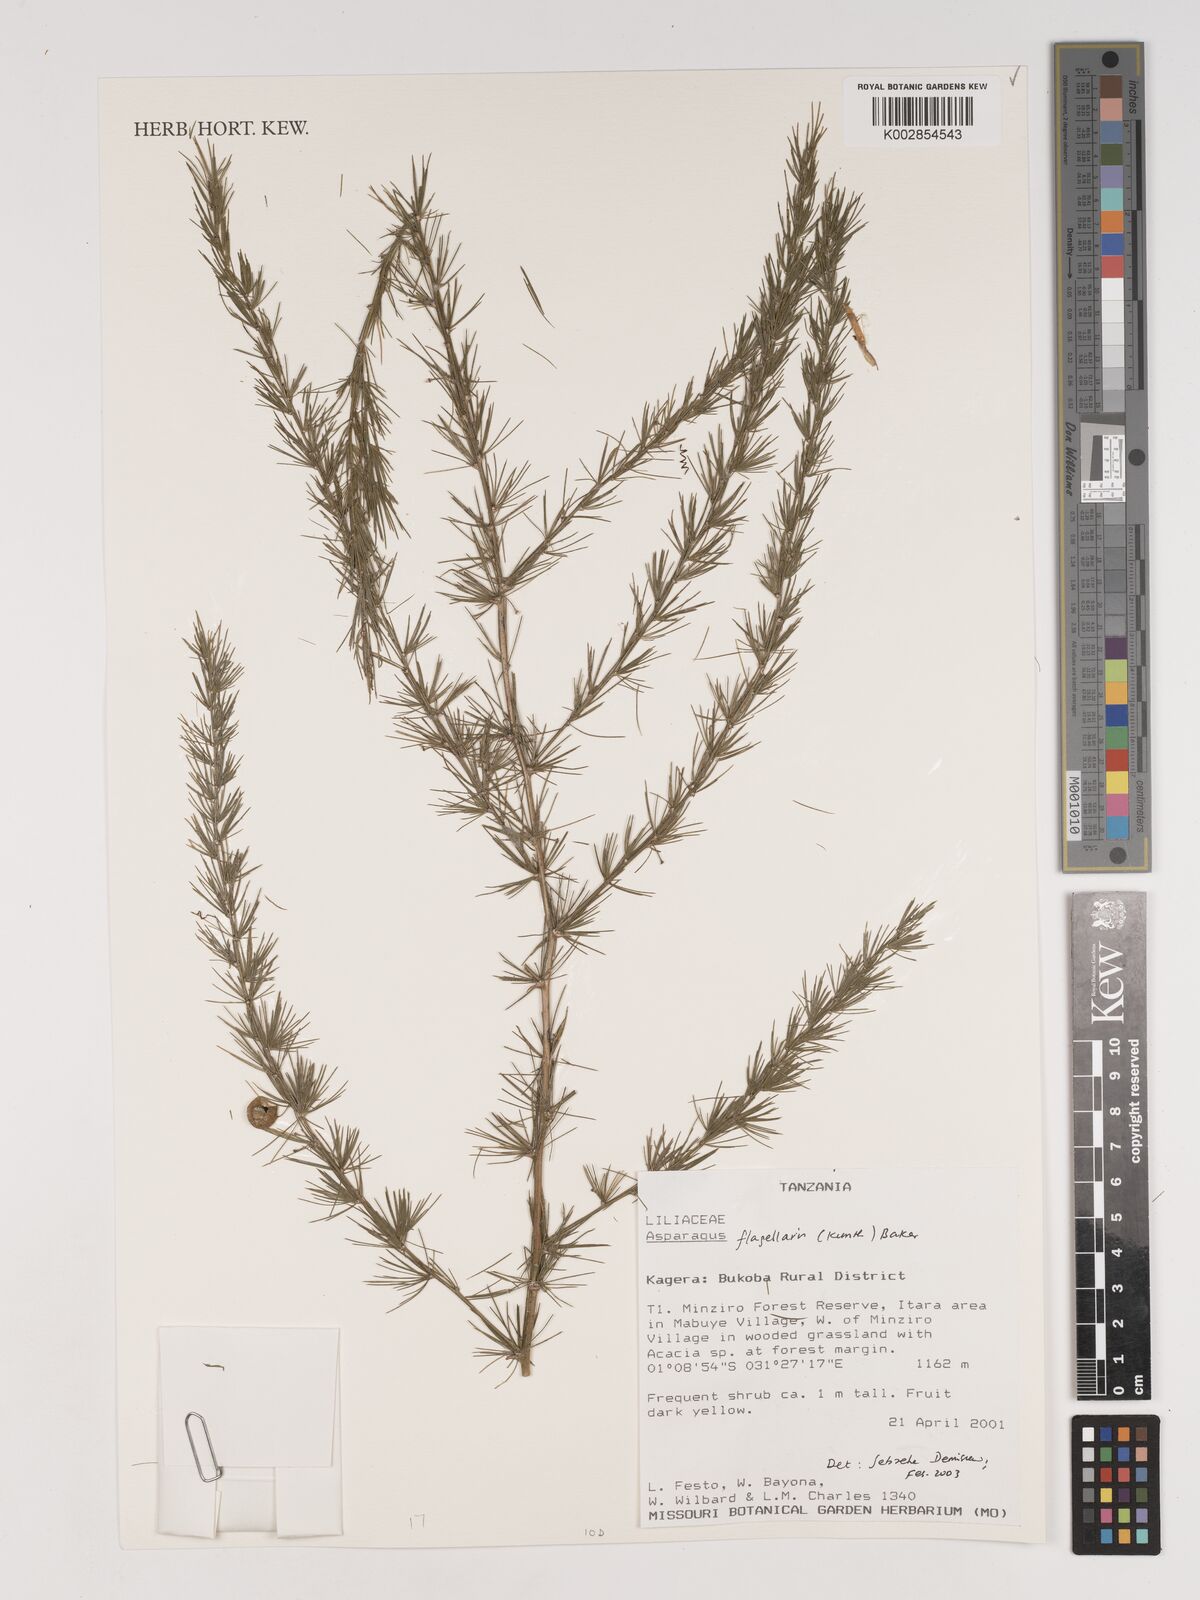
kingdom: Plantae
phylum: Tracheophyta
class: Liliopsida
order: Asparagales
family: Asparagaceae
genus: Asparagus
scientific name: Asparagus flagellaris
